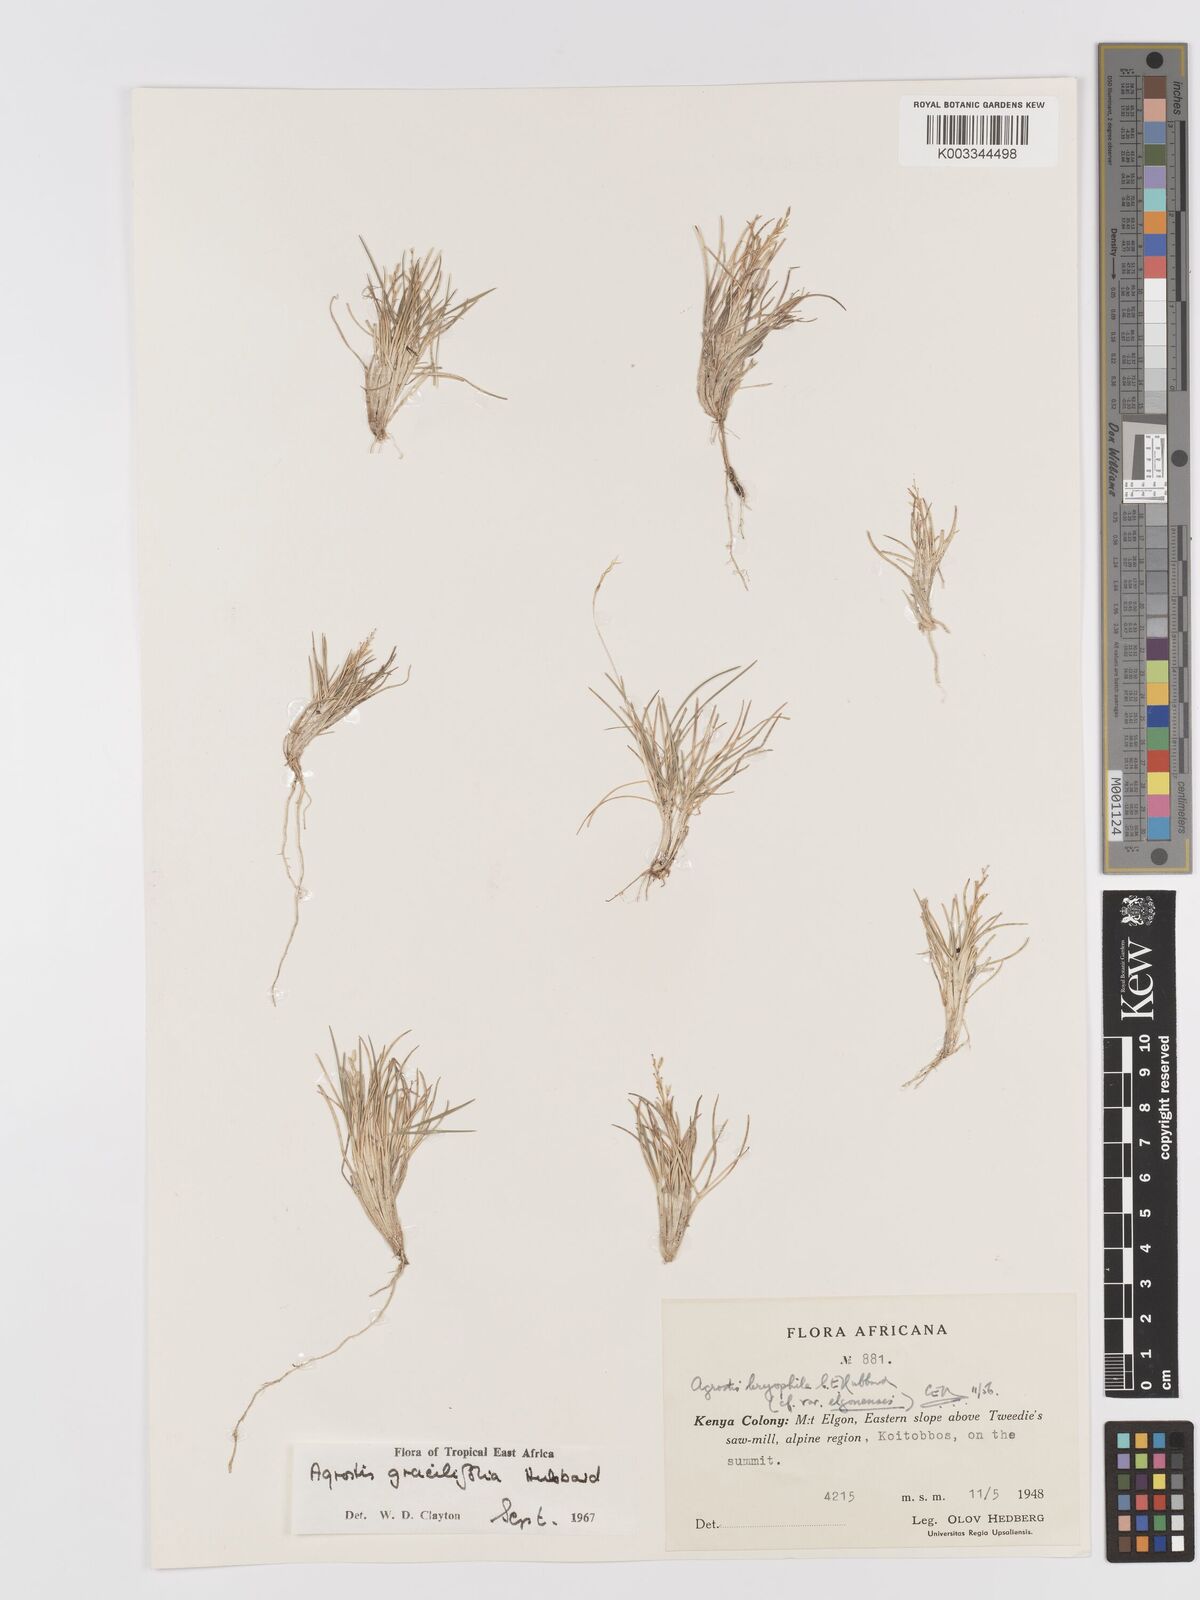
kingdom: Plantae
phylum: Tracheophyta
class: Liliopsida
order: Poales
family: Poaceae
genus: Agrostis
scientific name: Agrostis gracilifolia
